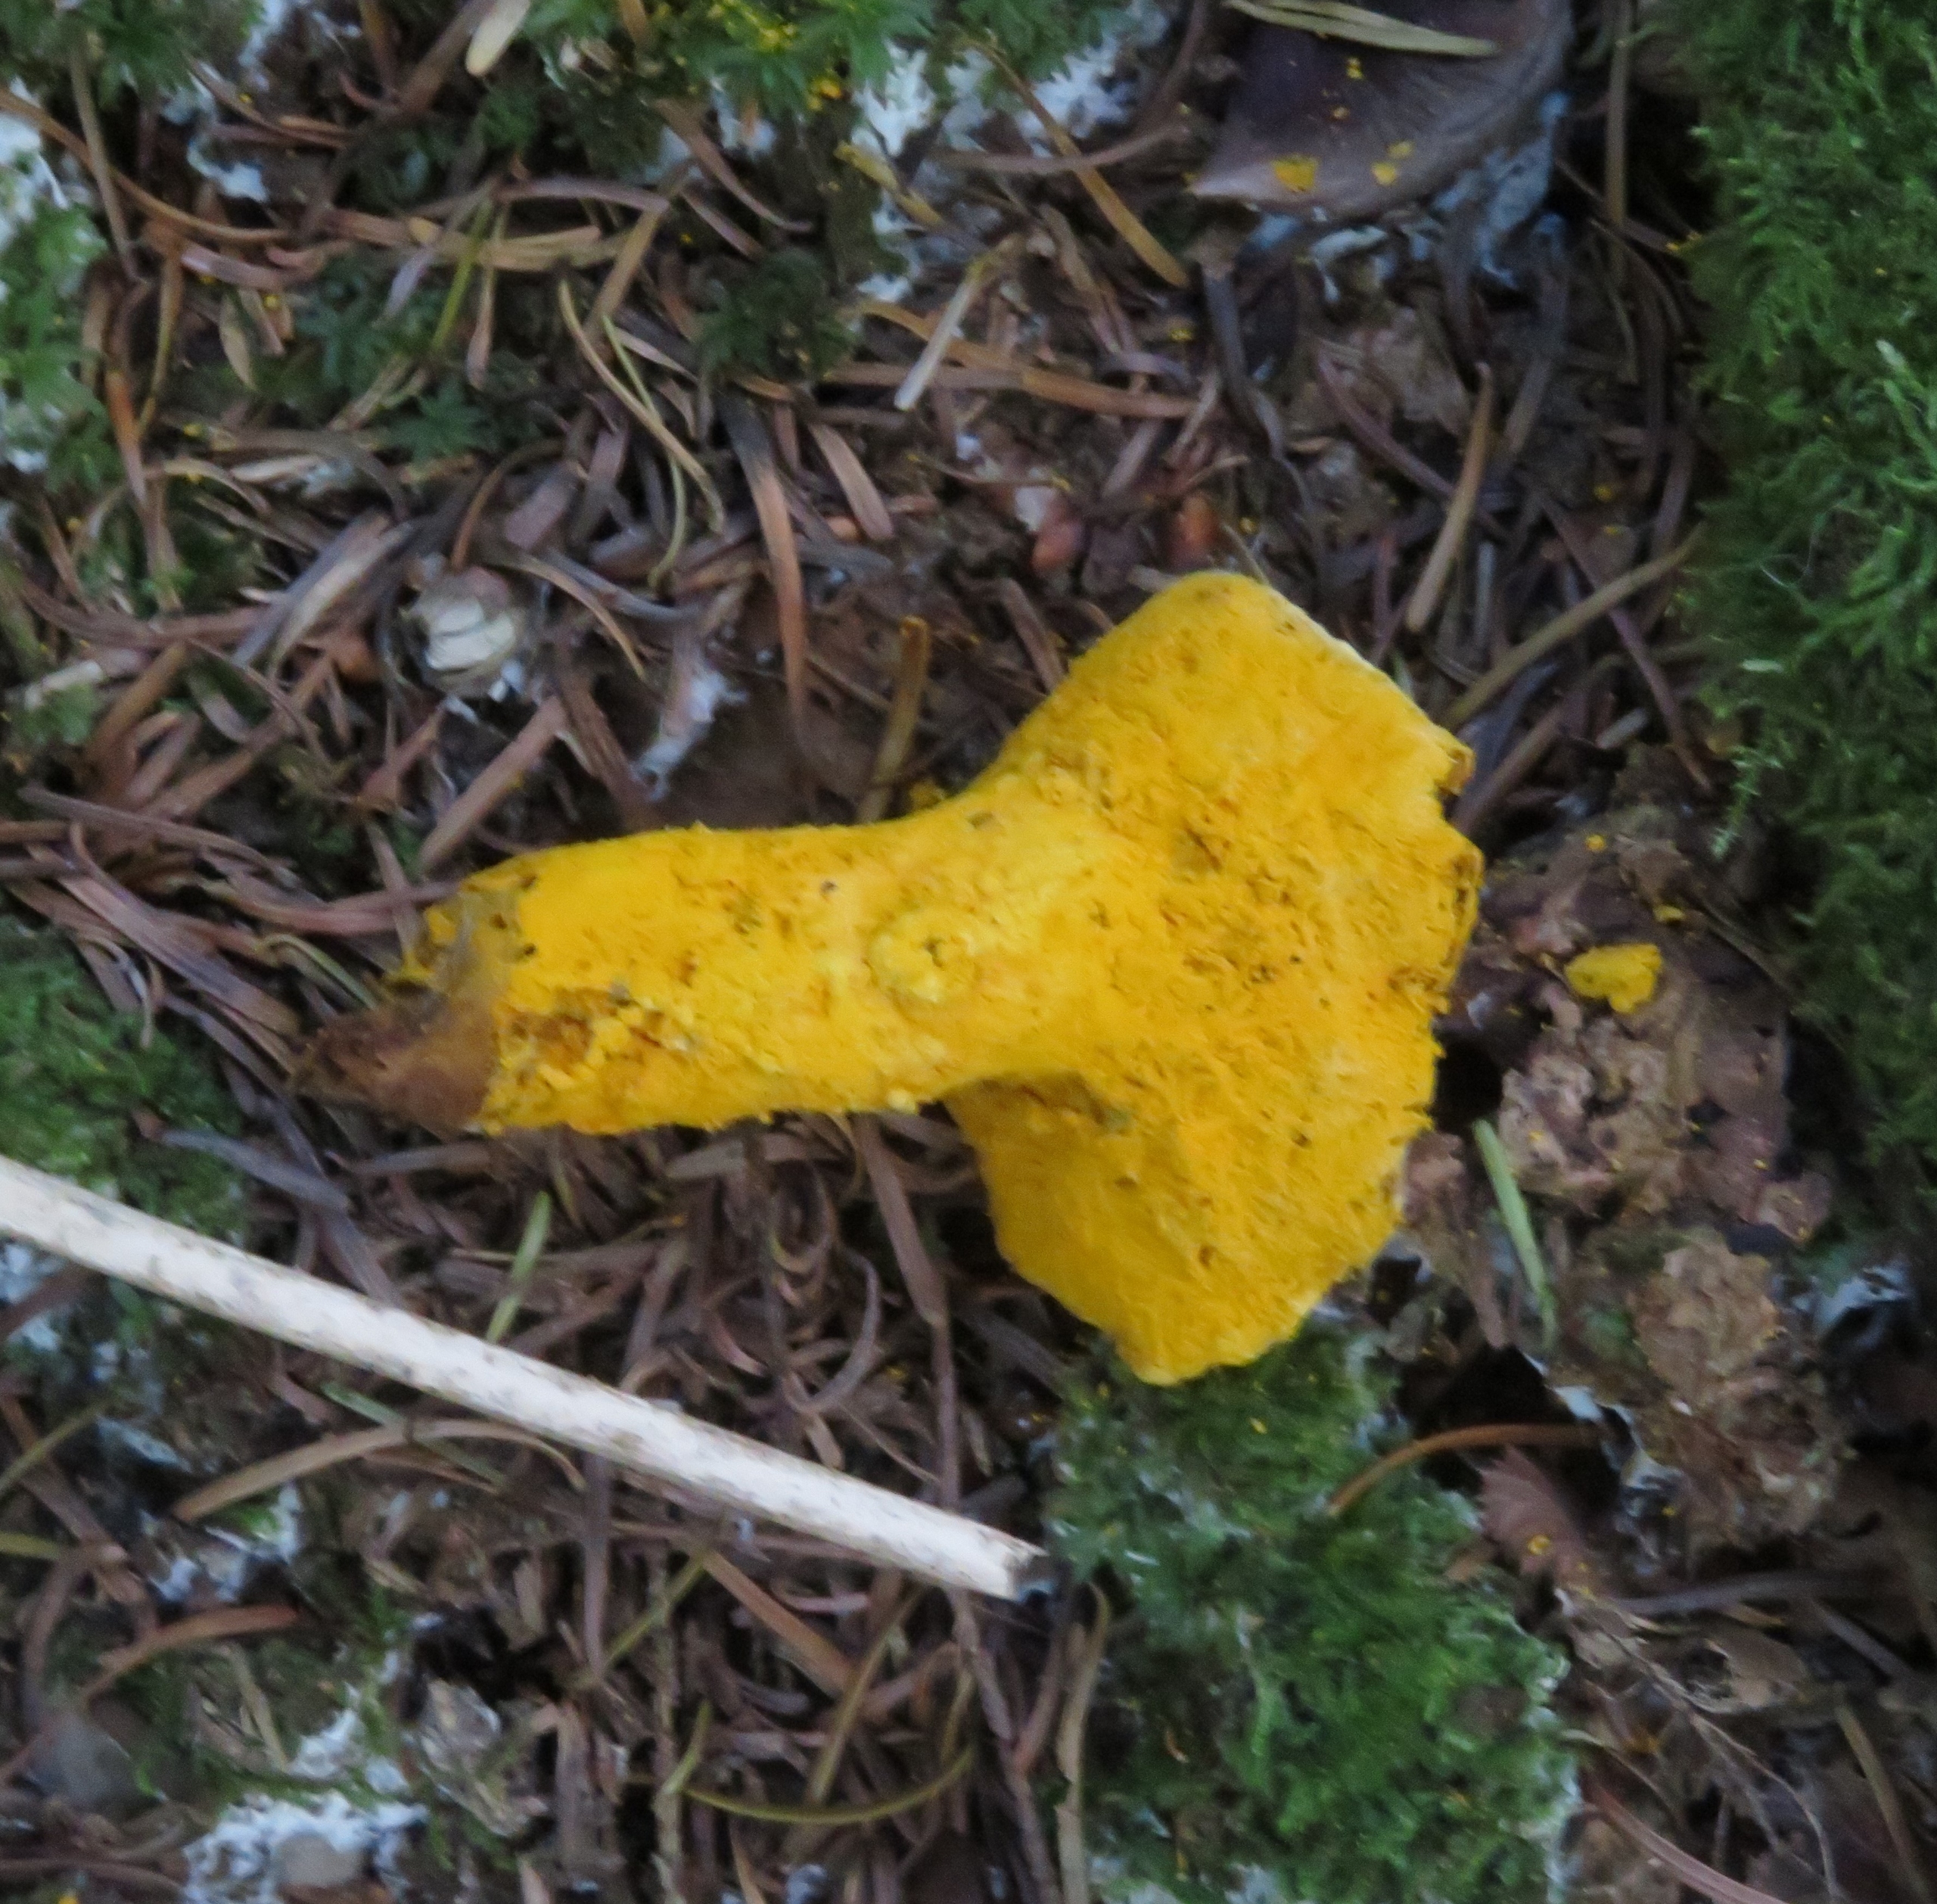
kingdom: Fungi
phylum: Ascomycota
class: Sordariomycetes
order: Hypocreales
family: Hypocreaceae
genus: Hypomyces
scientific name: Hypomyces
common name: Snylteskorpe
